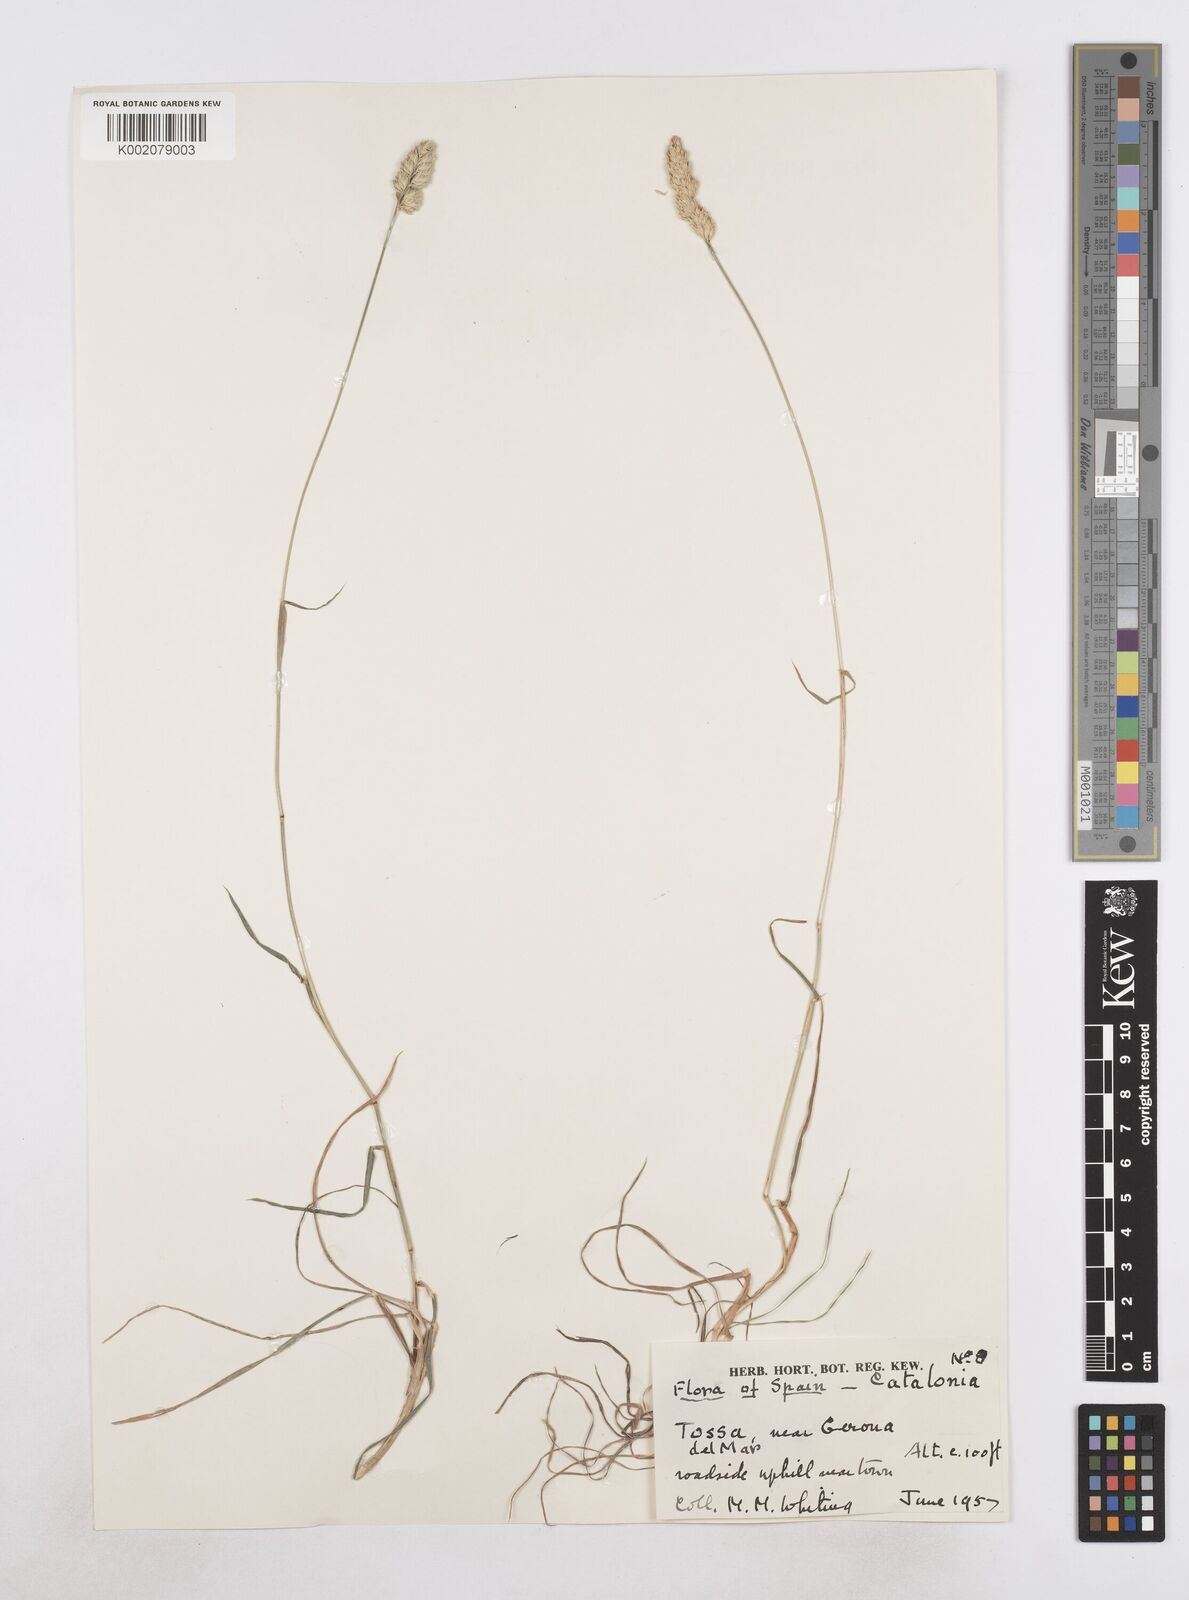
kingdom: Plantae
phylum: Tracheophyta
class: Liliopsida
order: Poales
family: Poaceae
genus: Dactylis
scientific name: Dactylis glomerata
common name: Orchardgrass
